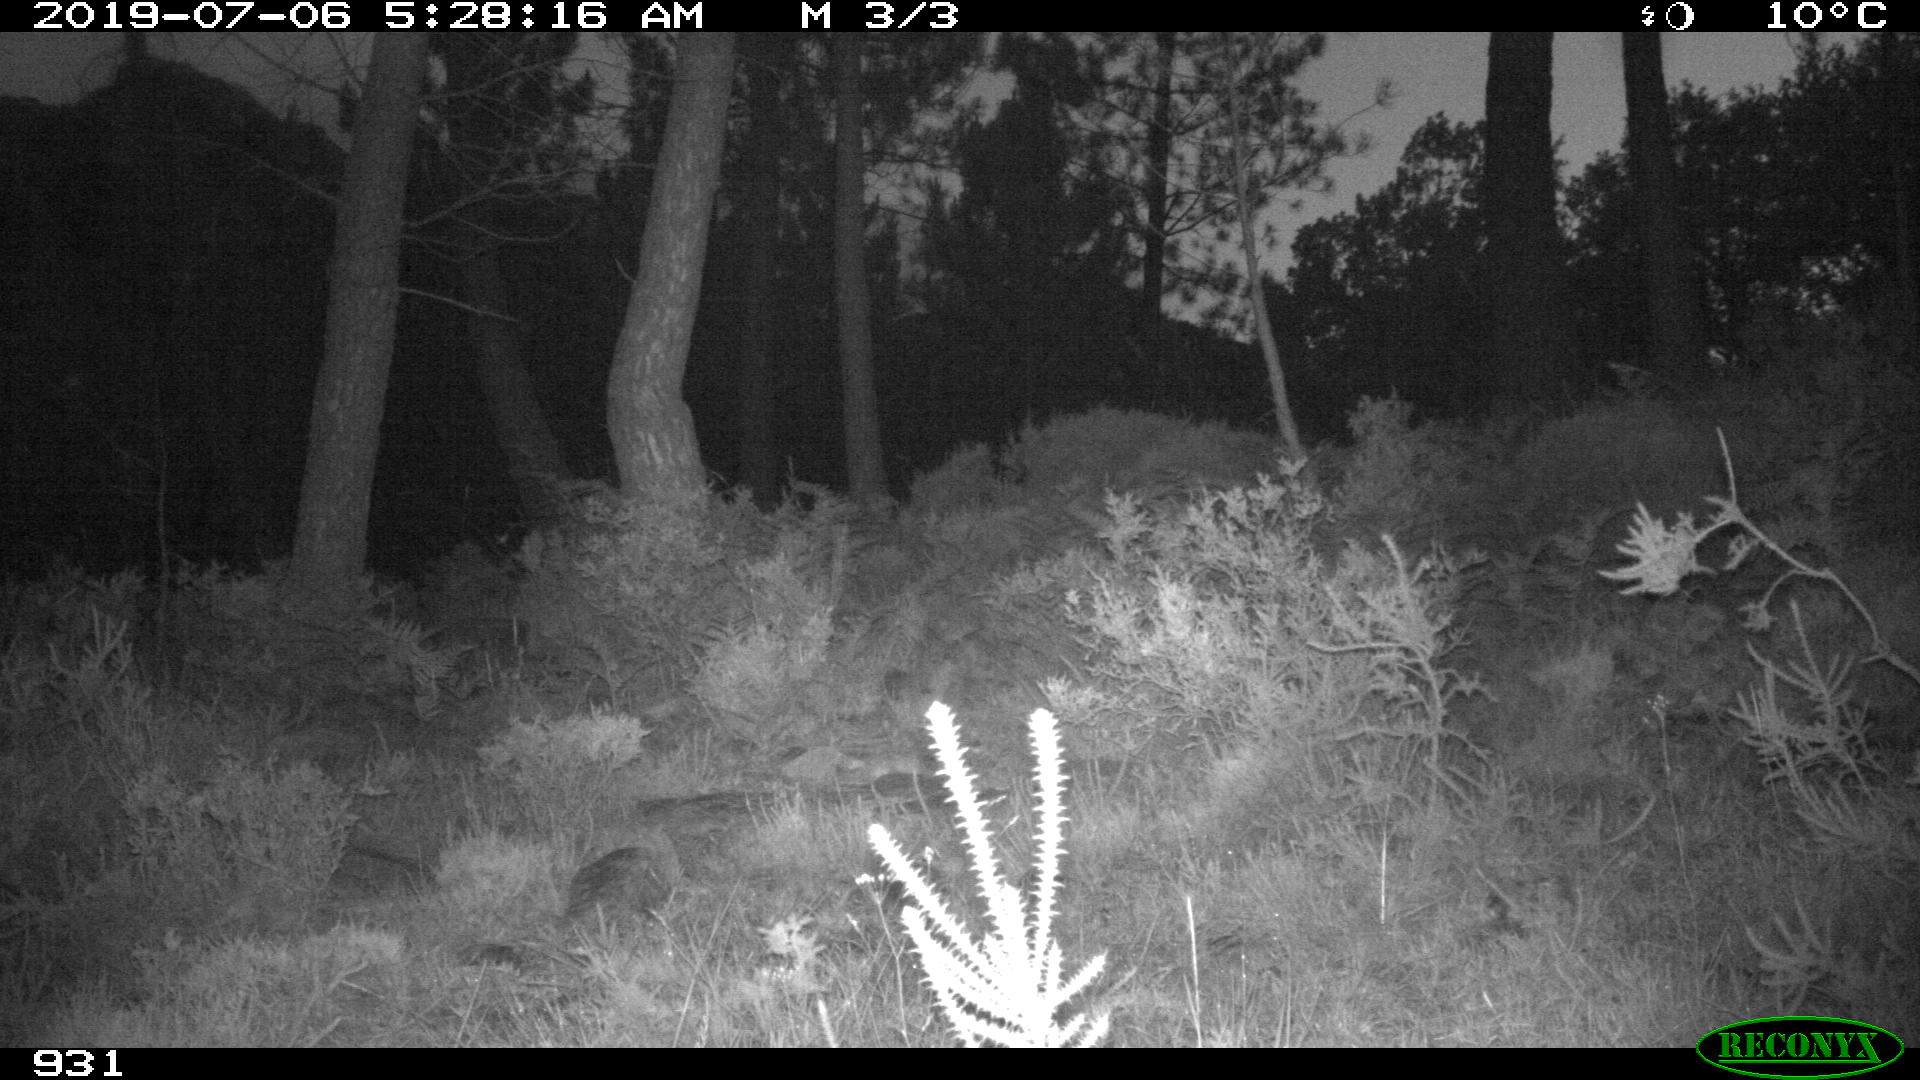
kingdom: Animalia
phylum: Chordata
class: Mammalia
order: Artiodactyla
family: Suidae
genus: Sus
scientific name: Sus scrofa
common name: Wild boar
